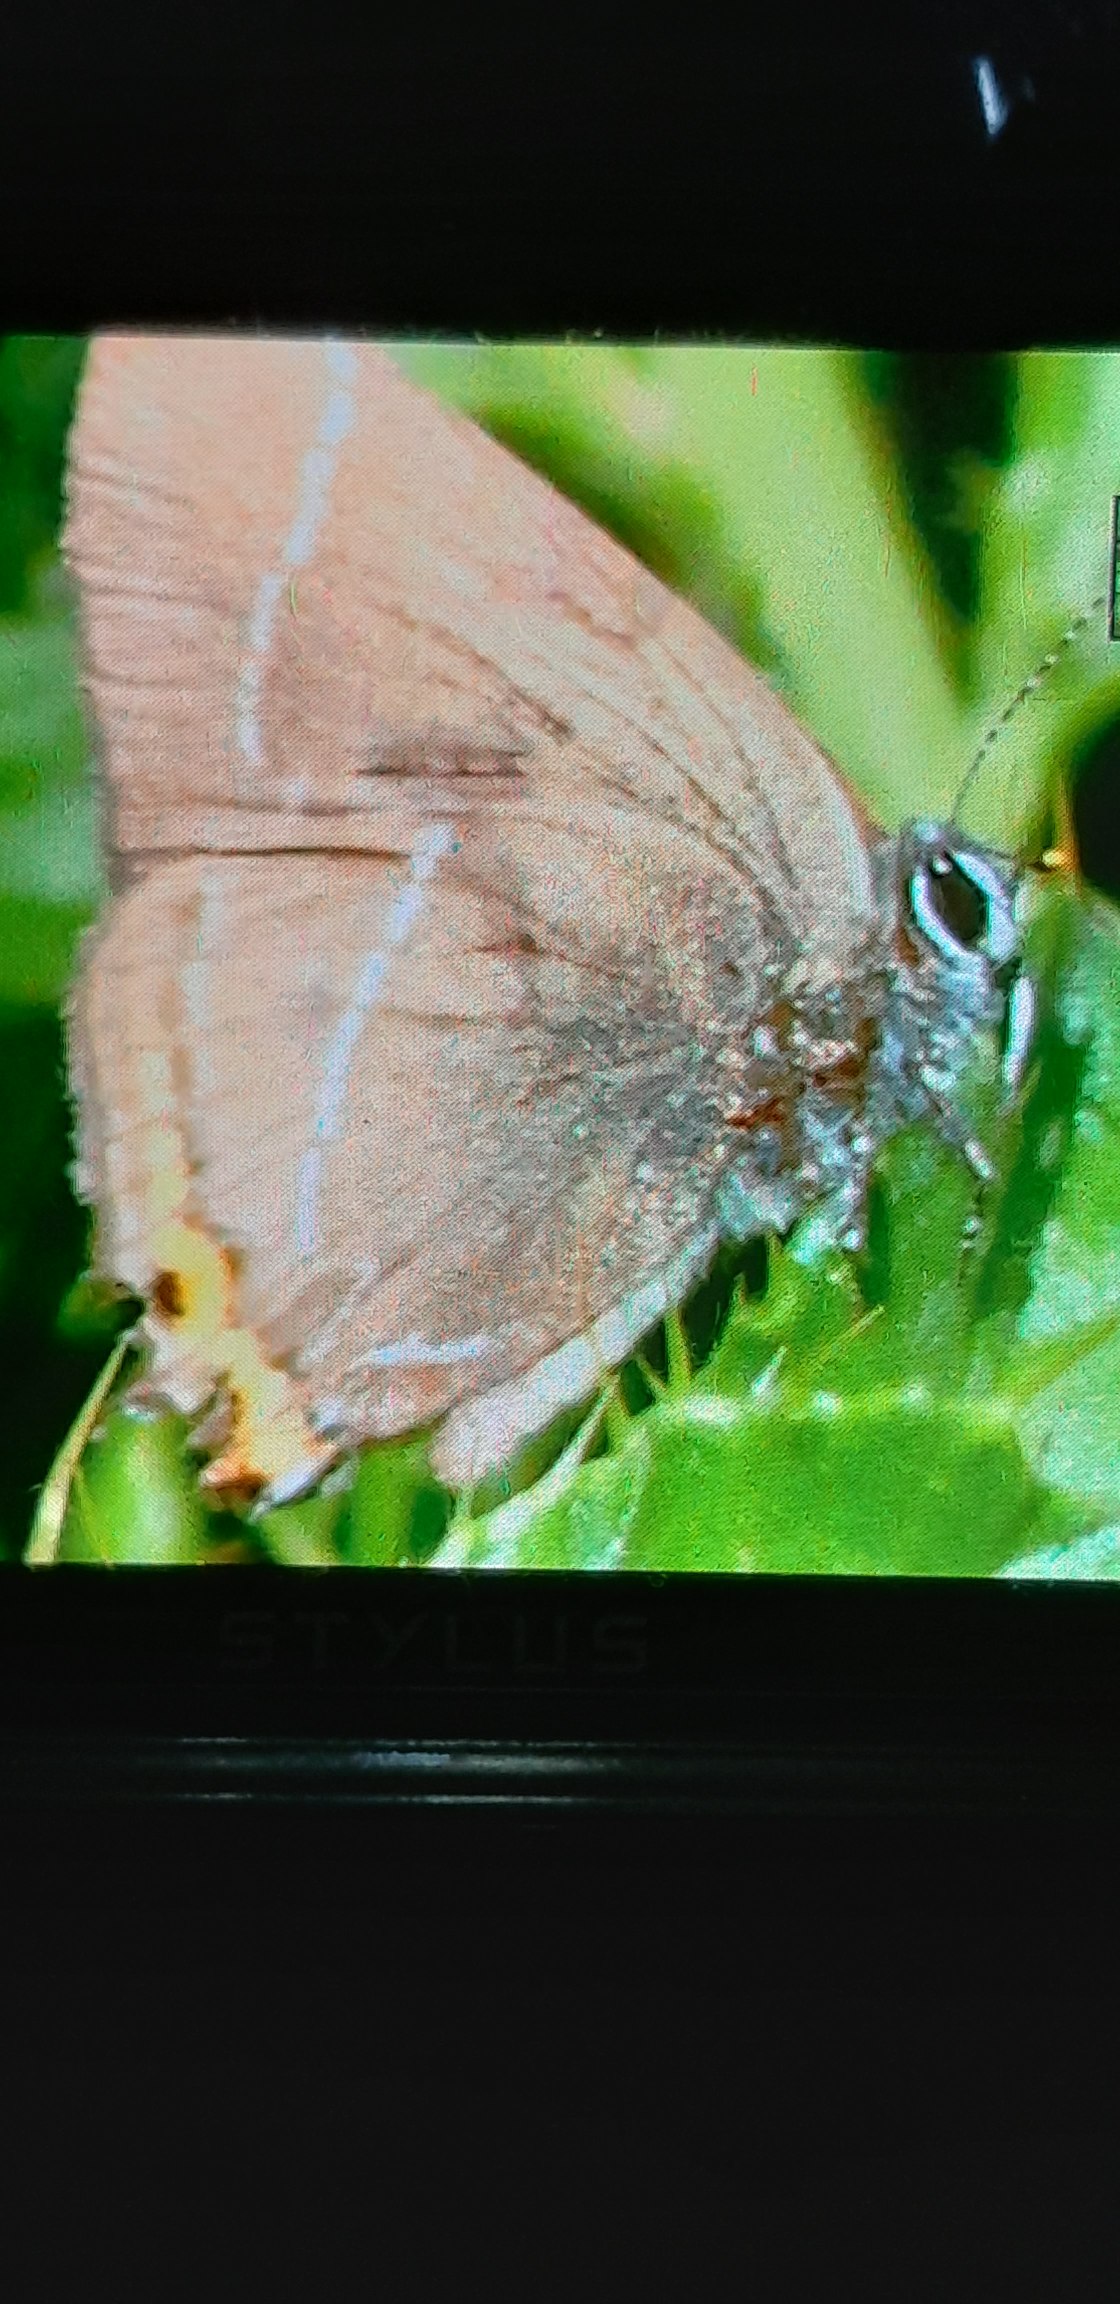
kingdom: Animalia
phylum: Arthropoda
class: Insecta
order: Lepidoptera
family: Lycaenidae
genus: Satyrium
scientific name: Satyrium w-album
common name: Det hvide W
